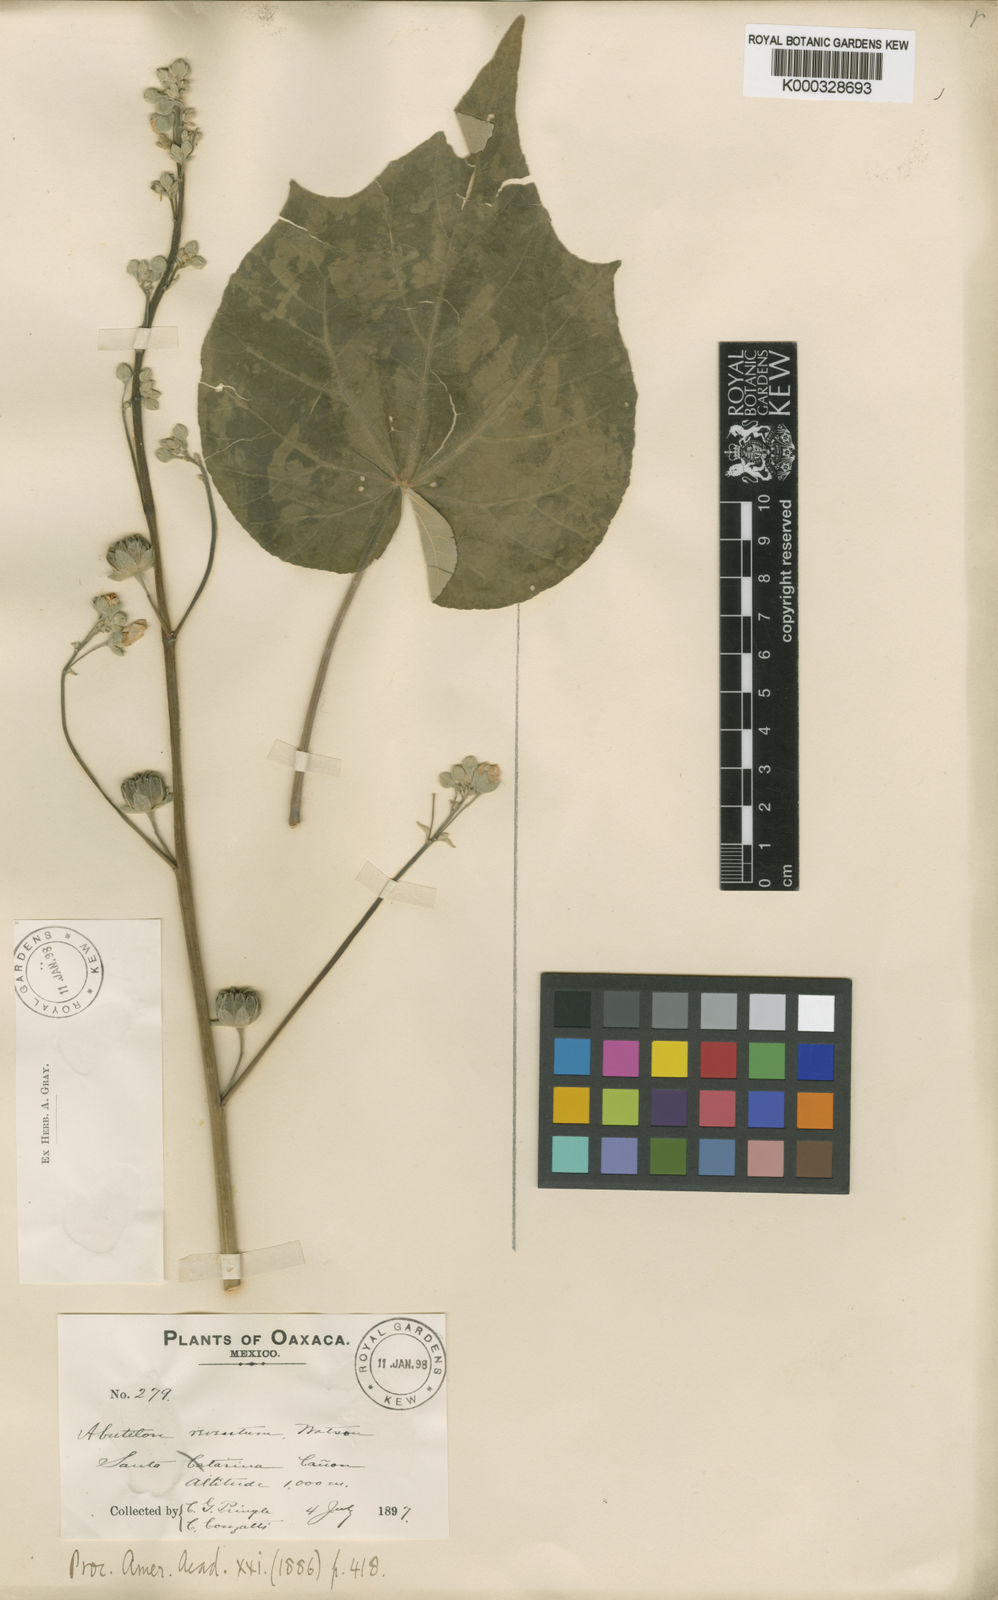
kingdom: Plantae
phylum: Tracheophyta
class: Magnoliopsida
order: Malvales
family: Malvaceae
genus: Abutilon
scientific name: Abutilon reventum
